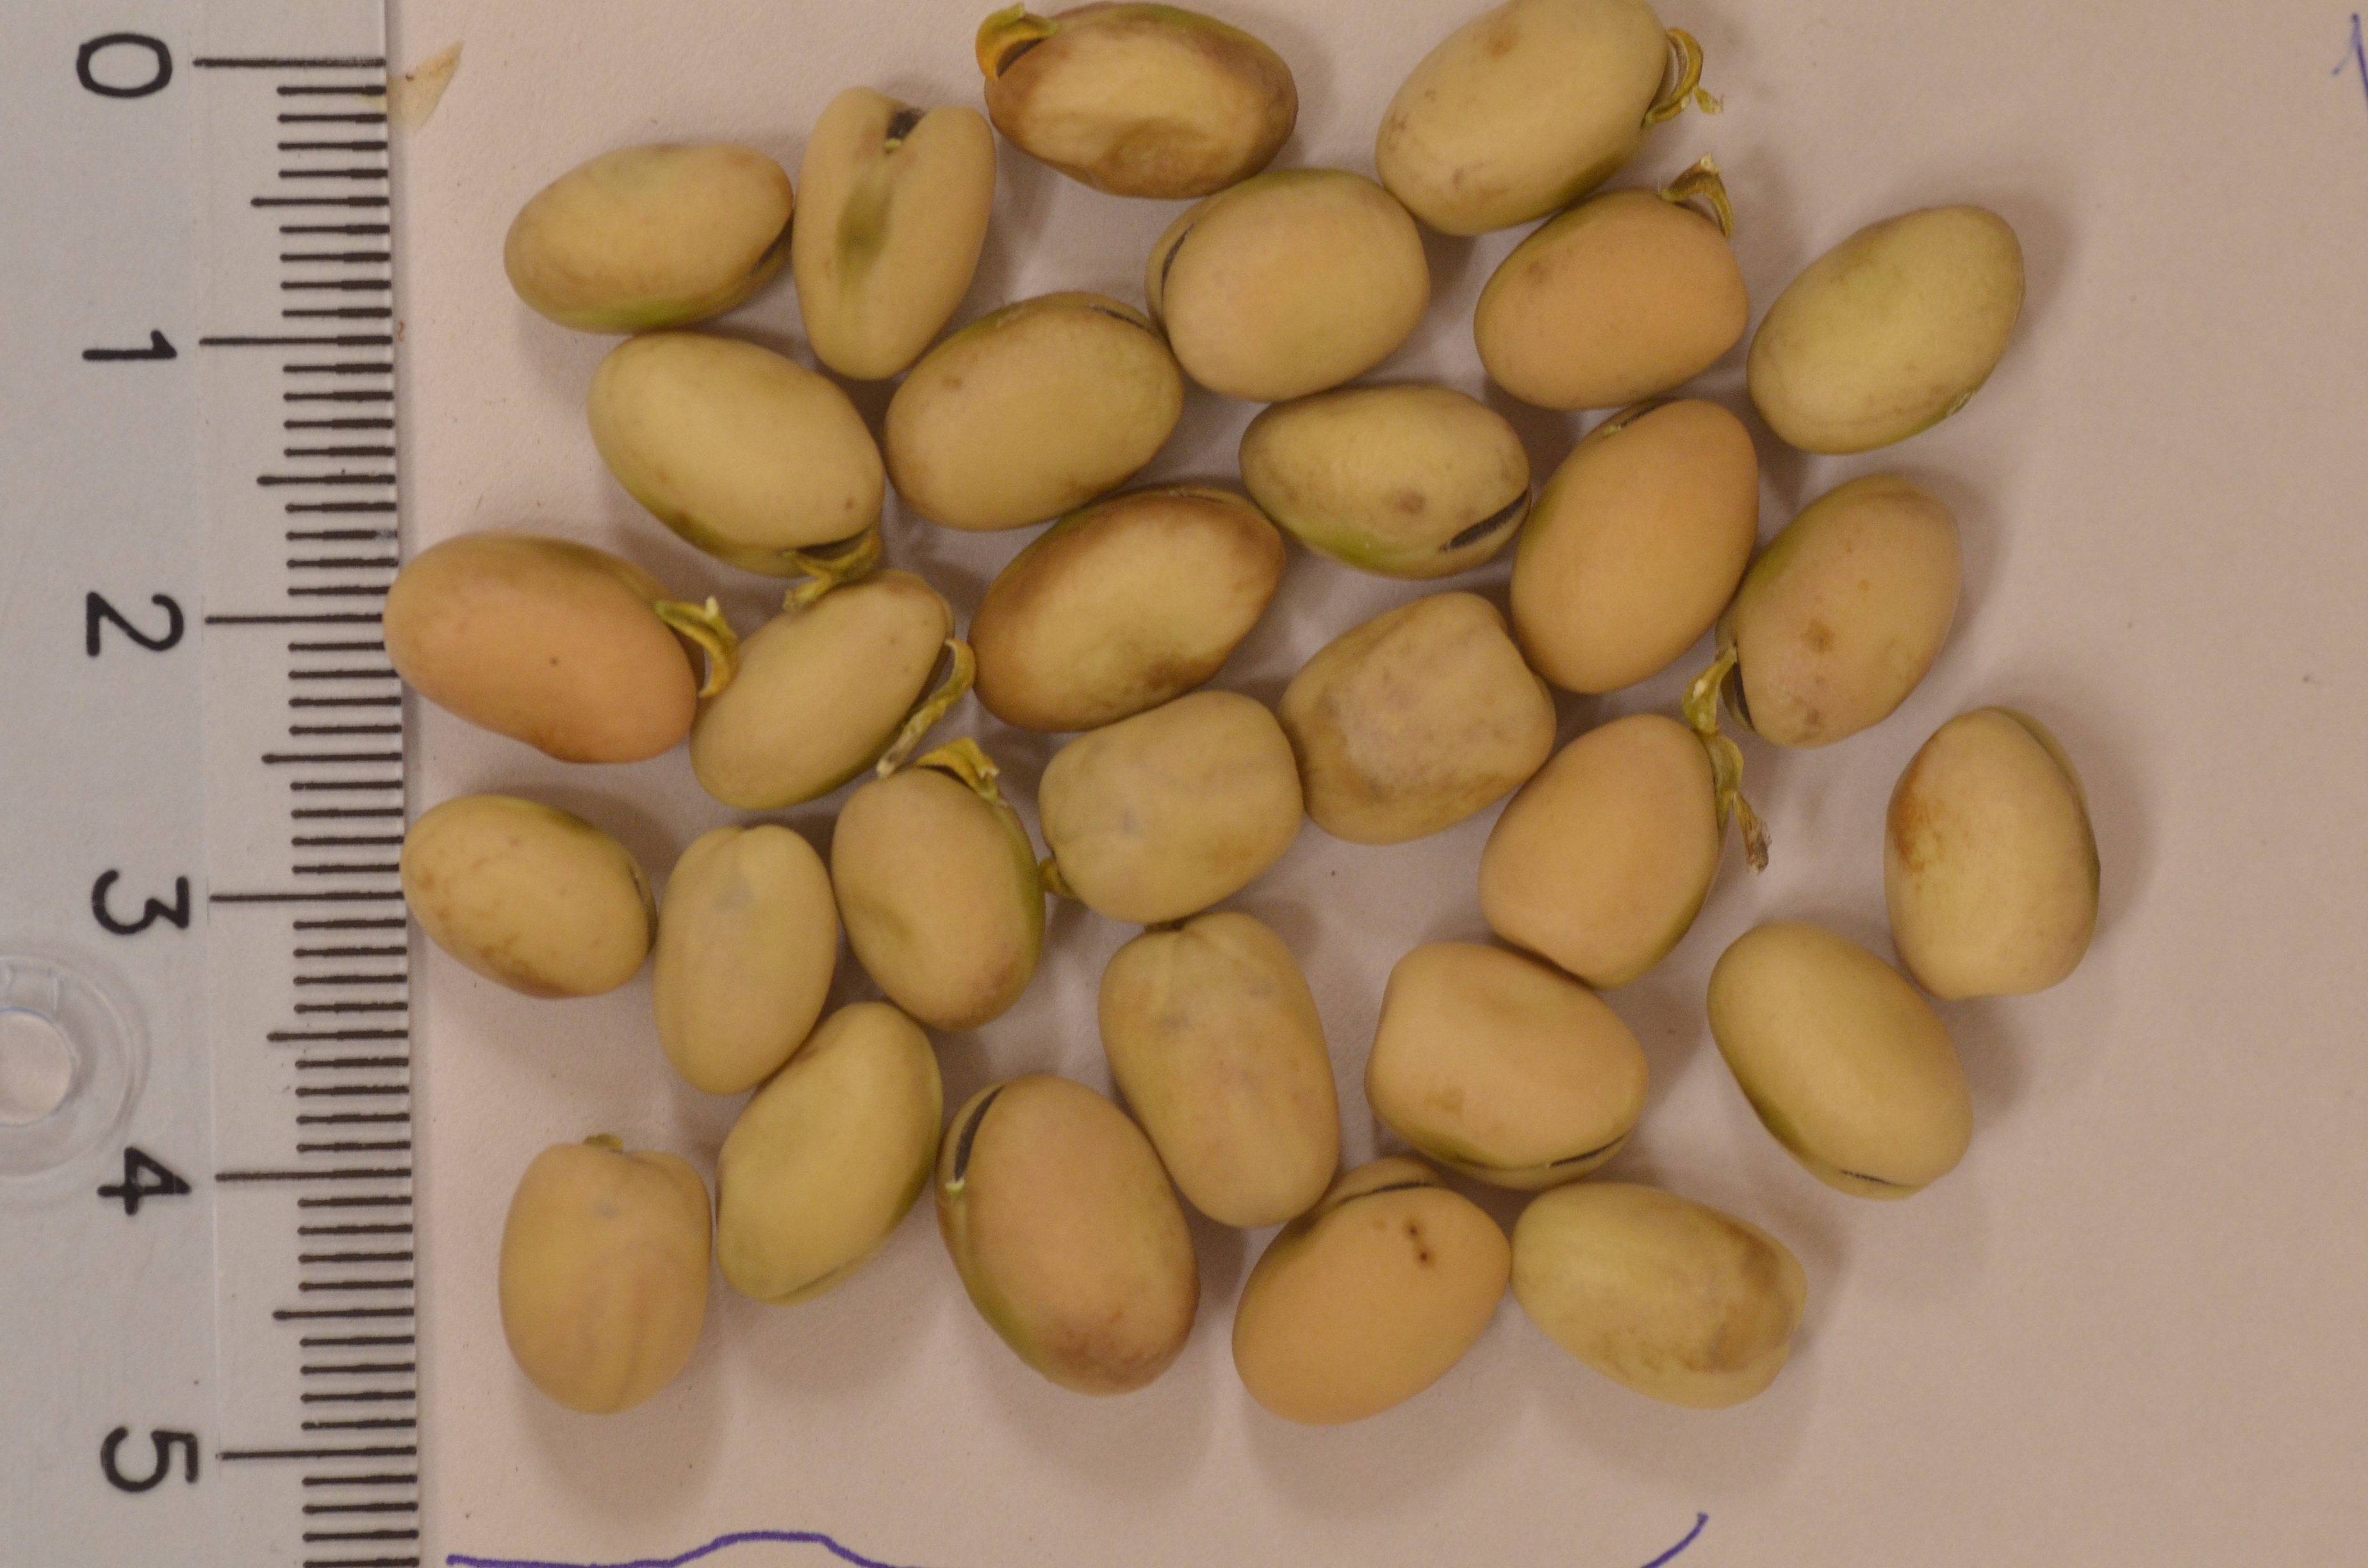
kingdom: Plantae
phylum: Tracheophyta
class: Magnoliopsida
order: Fabales
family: Fabaceae
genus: Vicia
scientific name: Vicia faba
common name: Broad bean
